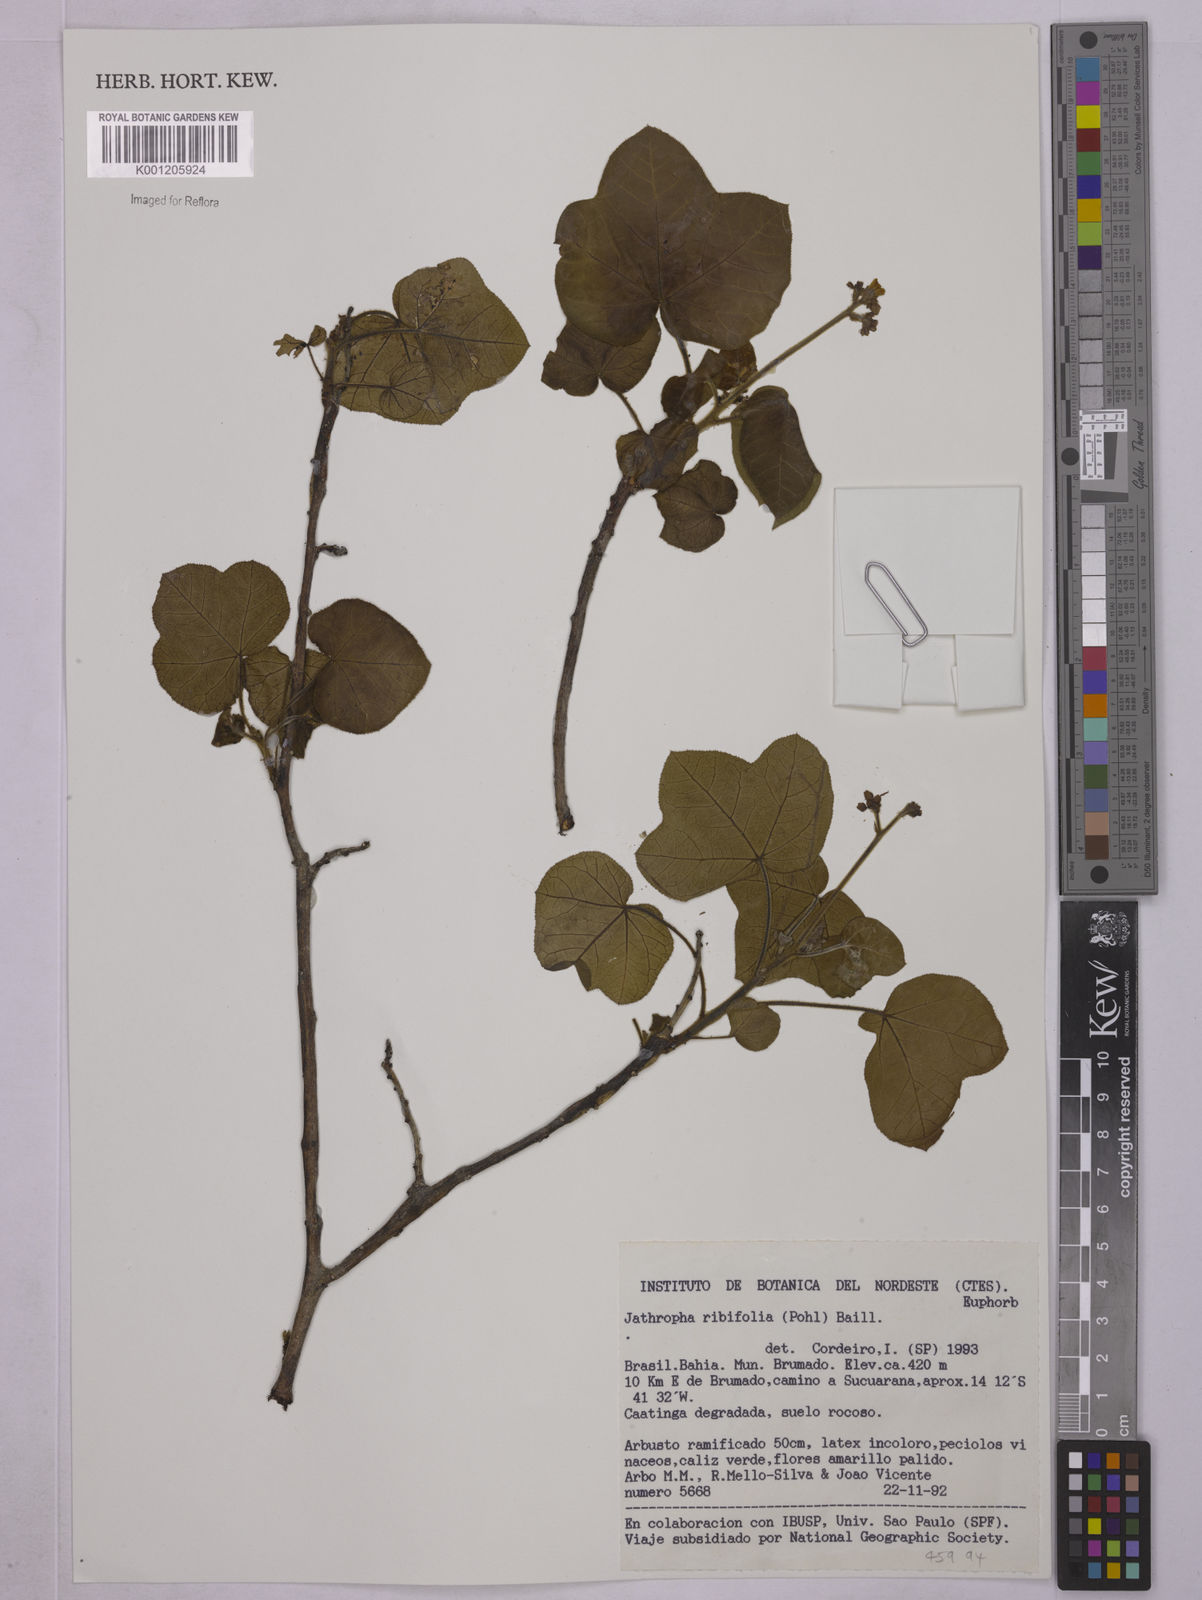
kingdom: Plantae
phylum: Tracheophyta
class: Magnoliopsida
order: Malpighiales
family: Euphorbiaceae
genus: Jatropha
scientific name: Jatropha ribifolia
